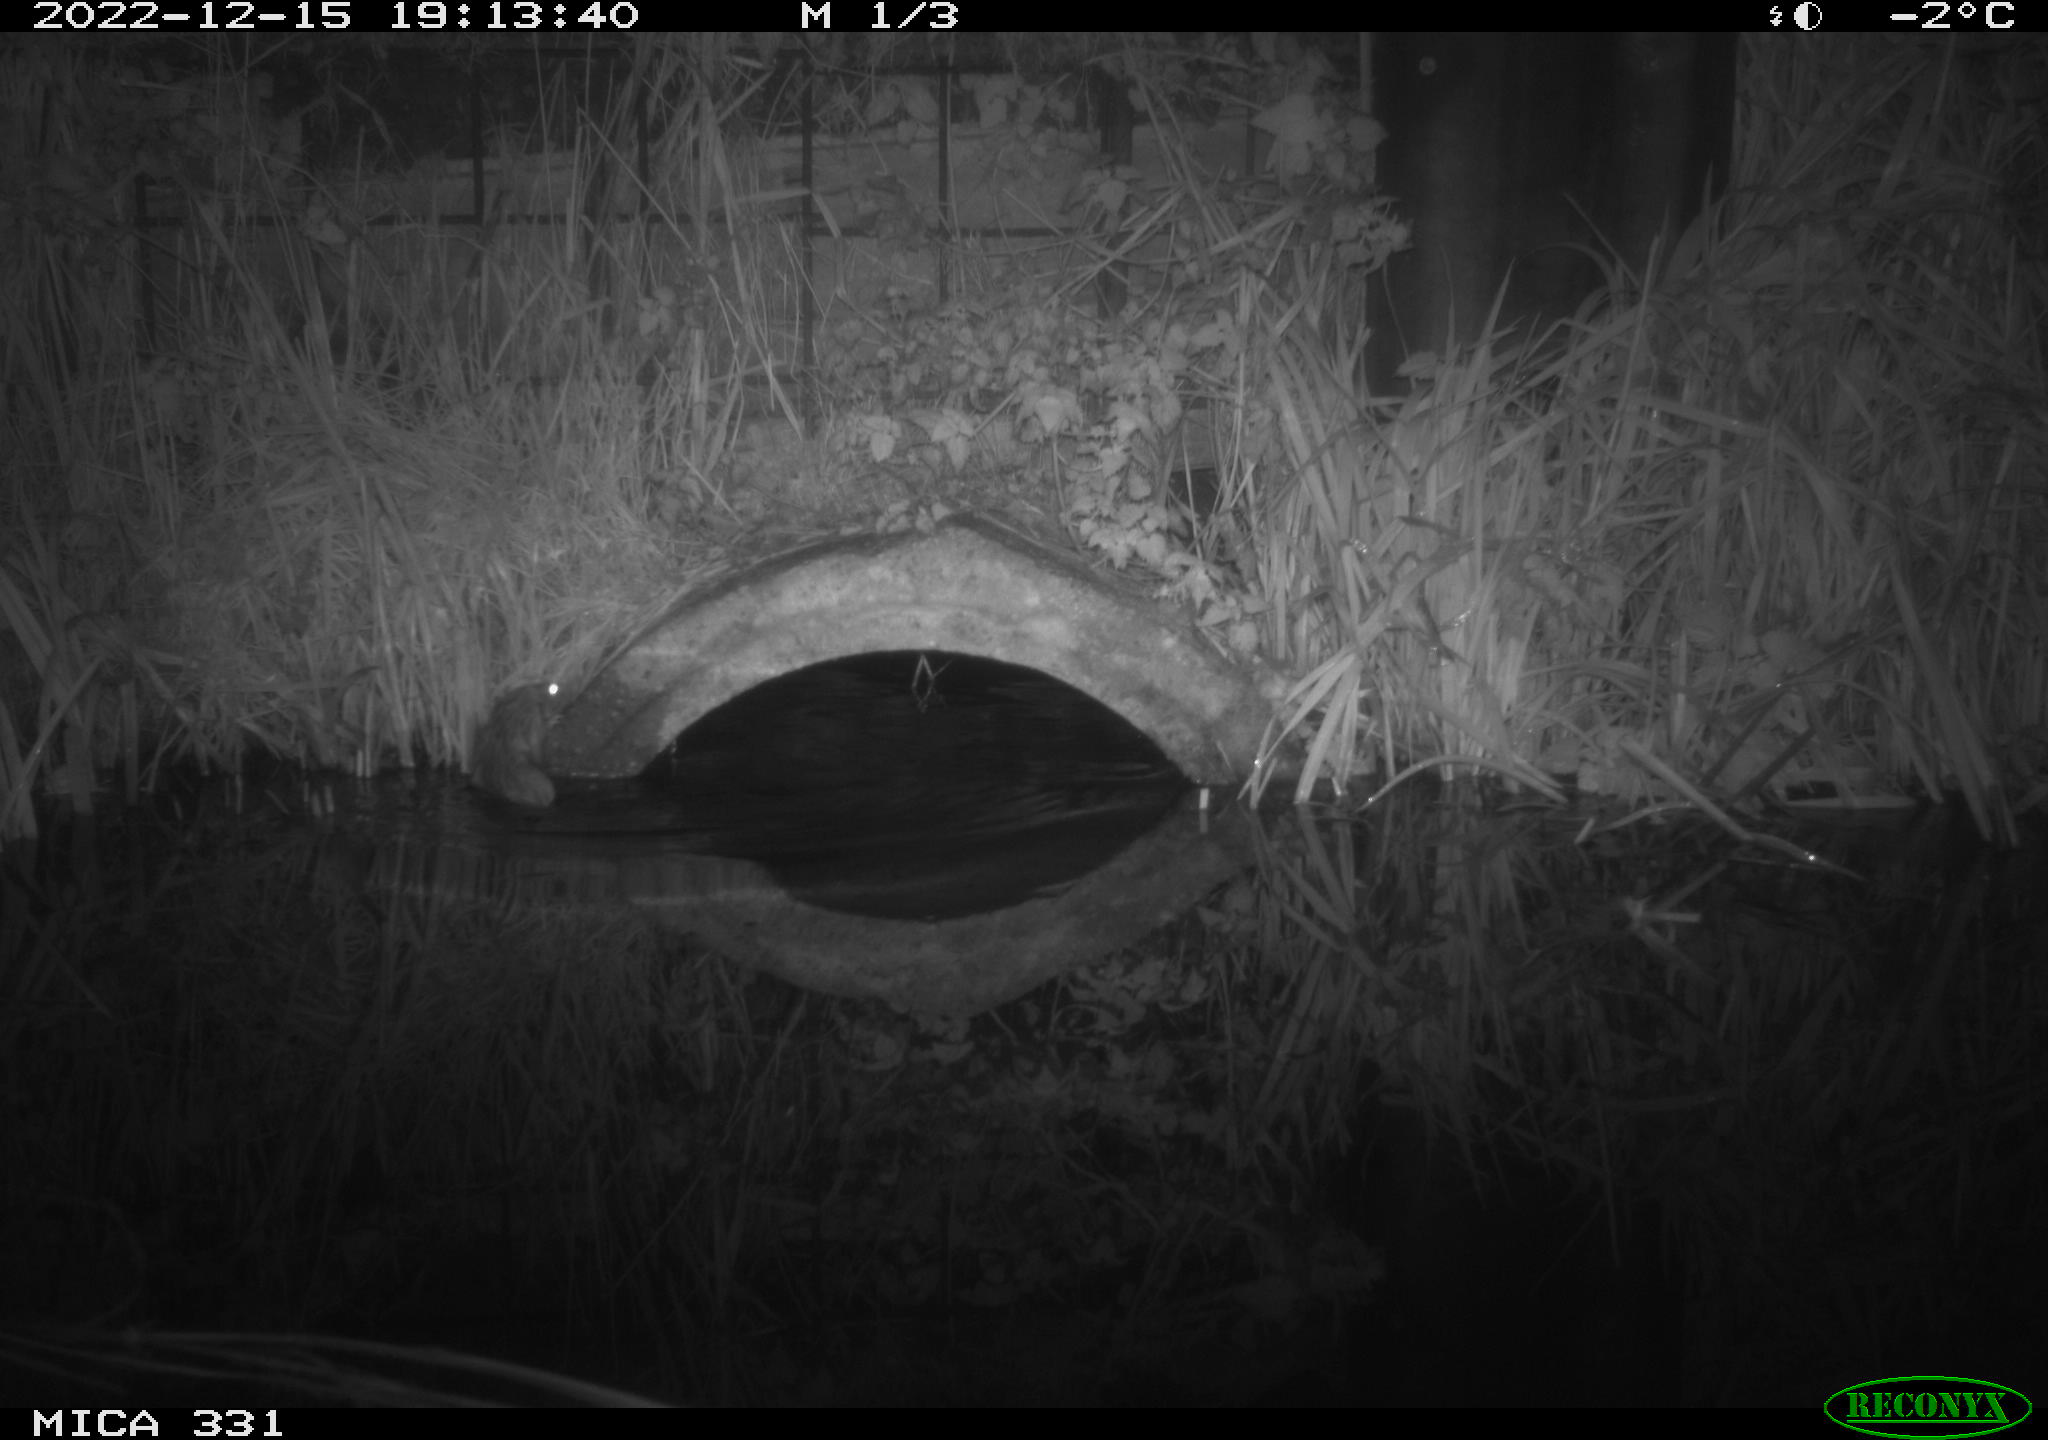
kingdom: Animalia
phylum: Chordata
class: Mammalia
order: Rodentia
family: Muridae
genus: Rattus
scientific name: Rattus norvegicus
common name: Brown rat
